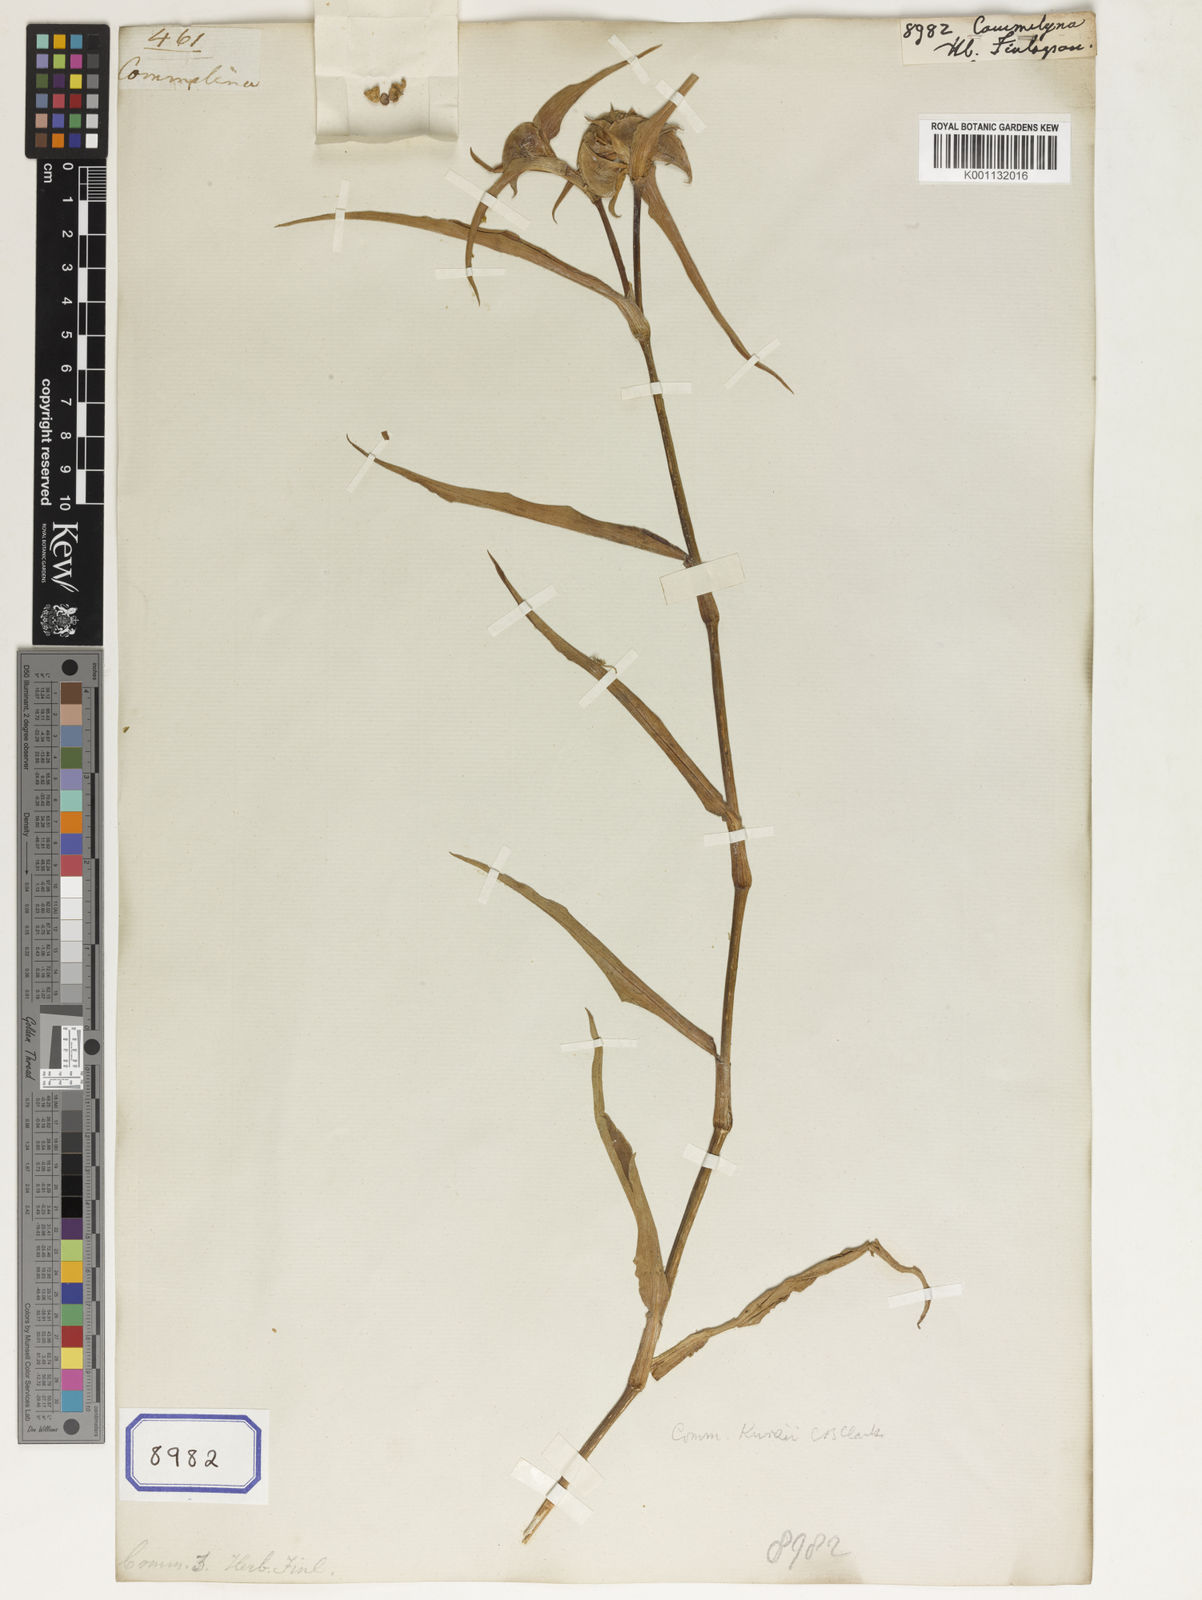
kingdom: Plantae
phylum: Tracheophyta
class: Liliopsida
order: Commelinales
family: Commelinaceae
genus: Commelina
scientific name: Commelina
